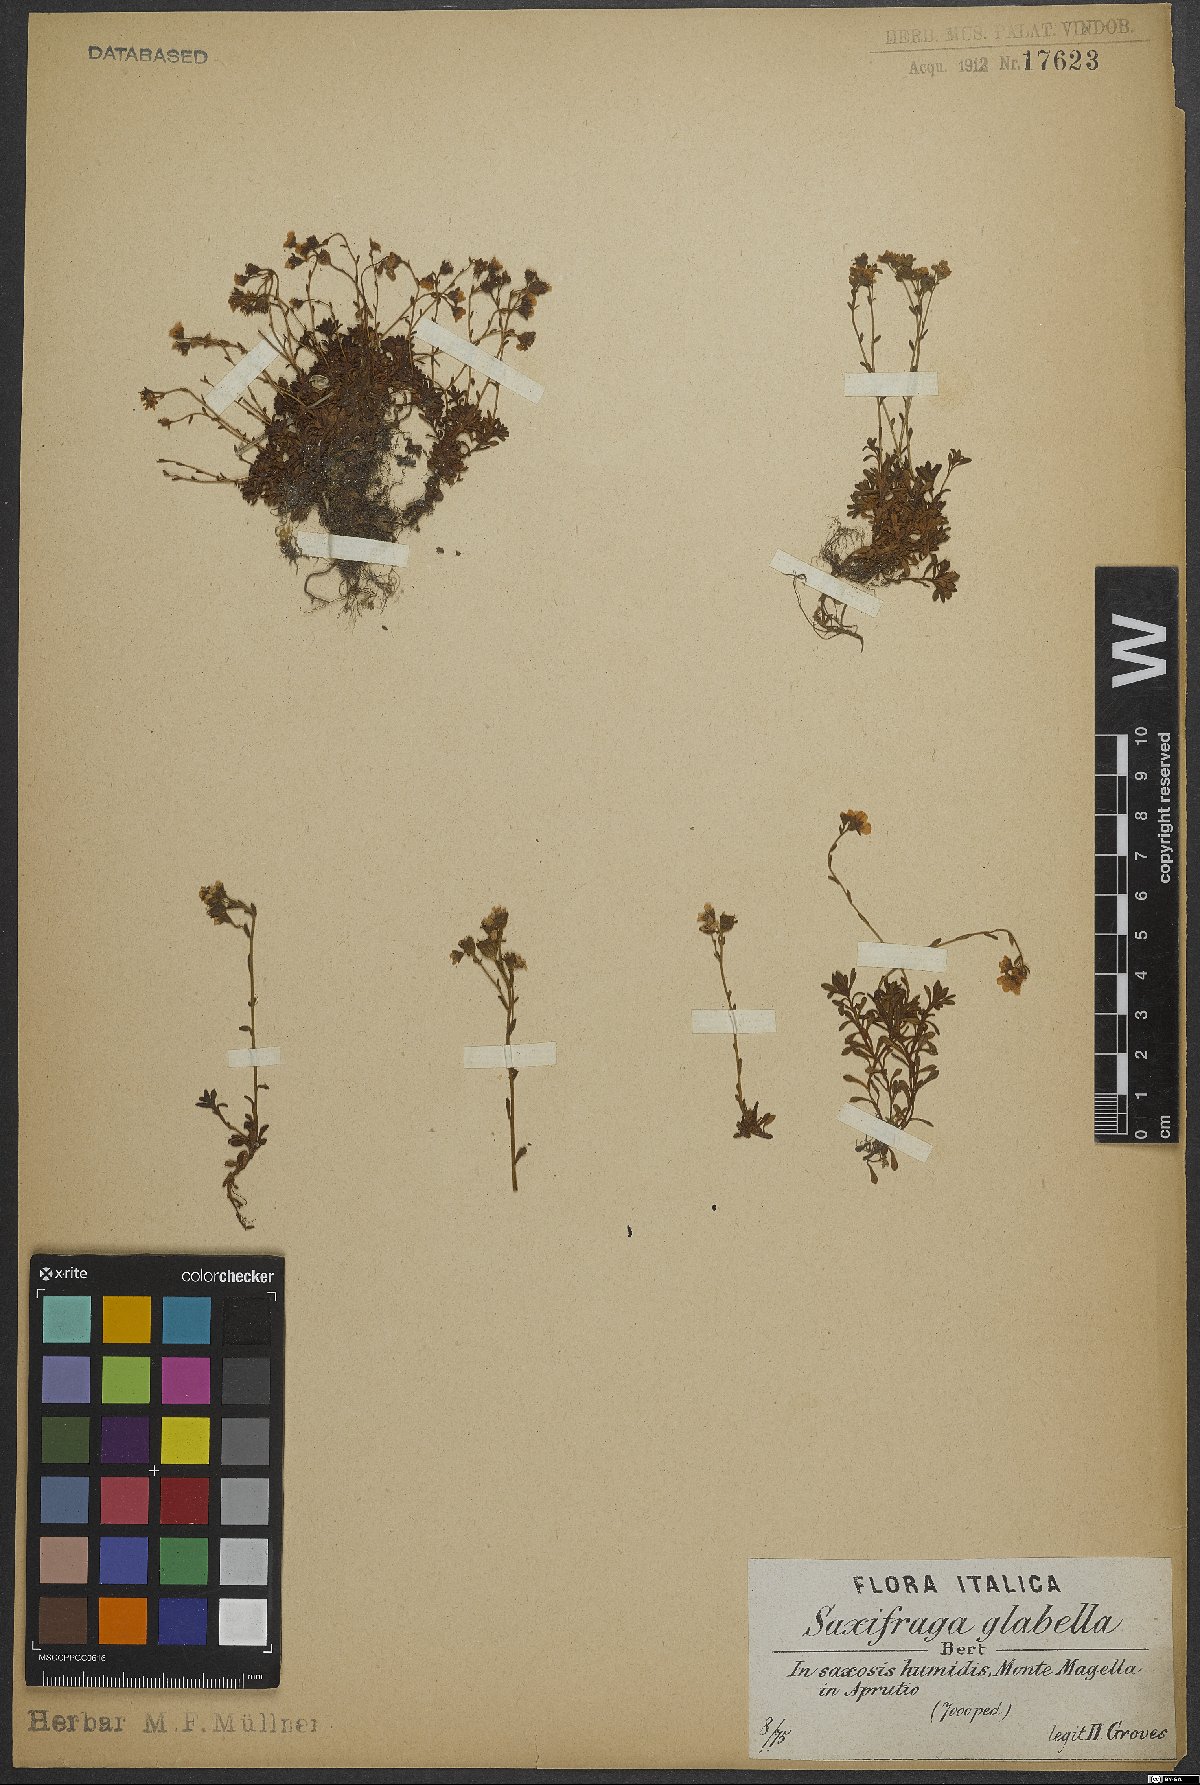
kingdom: Plantae
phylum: Tracheophyta
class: Magnoliopsida
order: Saxifragales
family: Saxifragaceae
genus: Saxifraga
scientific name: Saxifraga glabella
